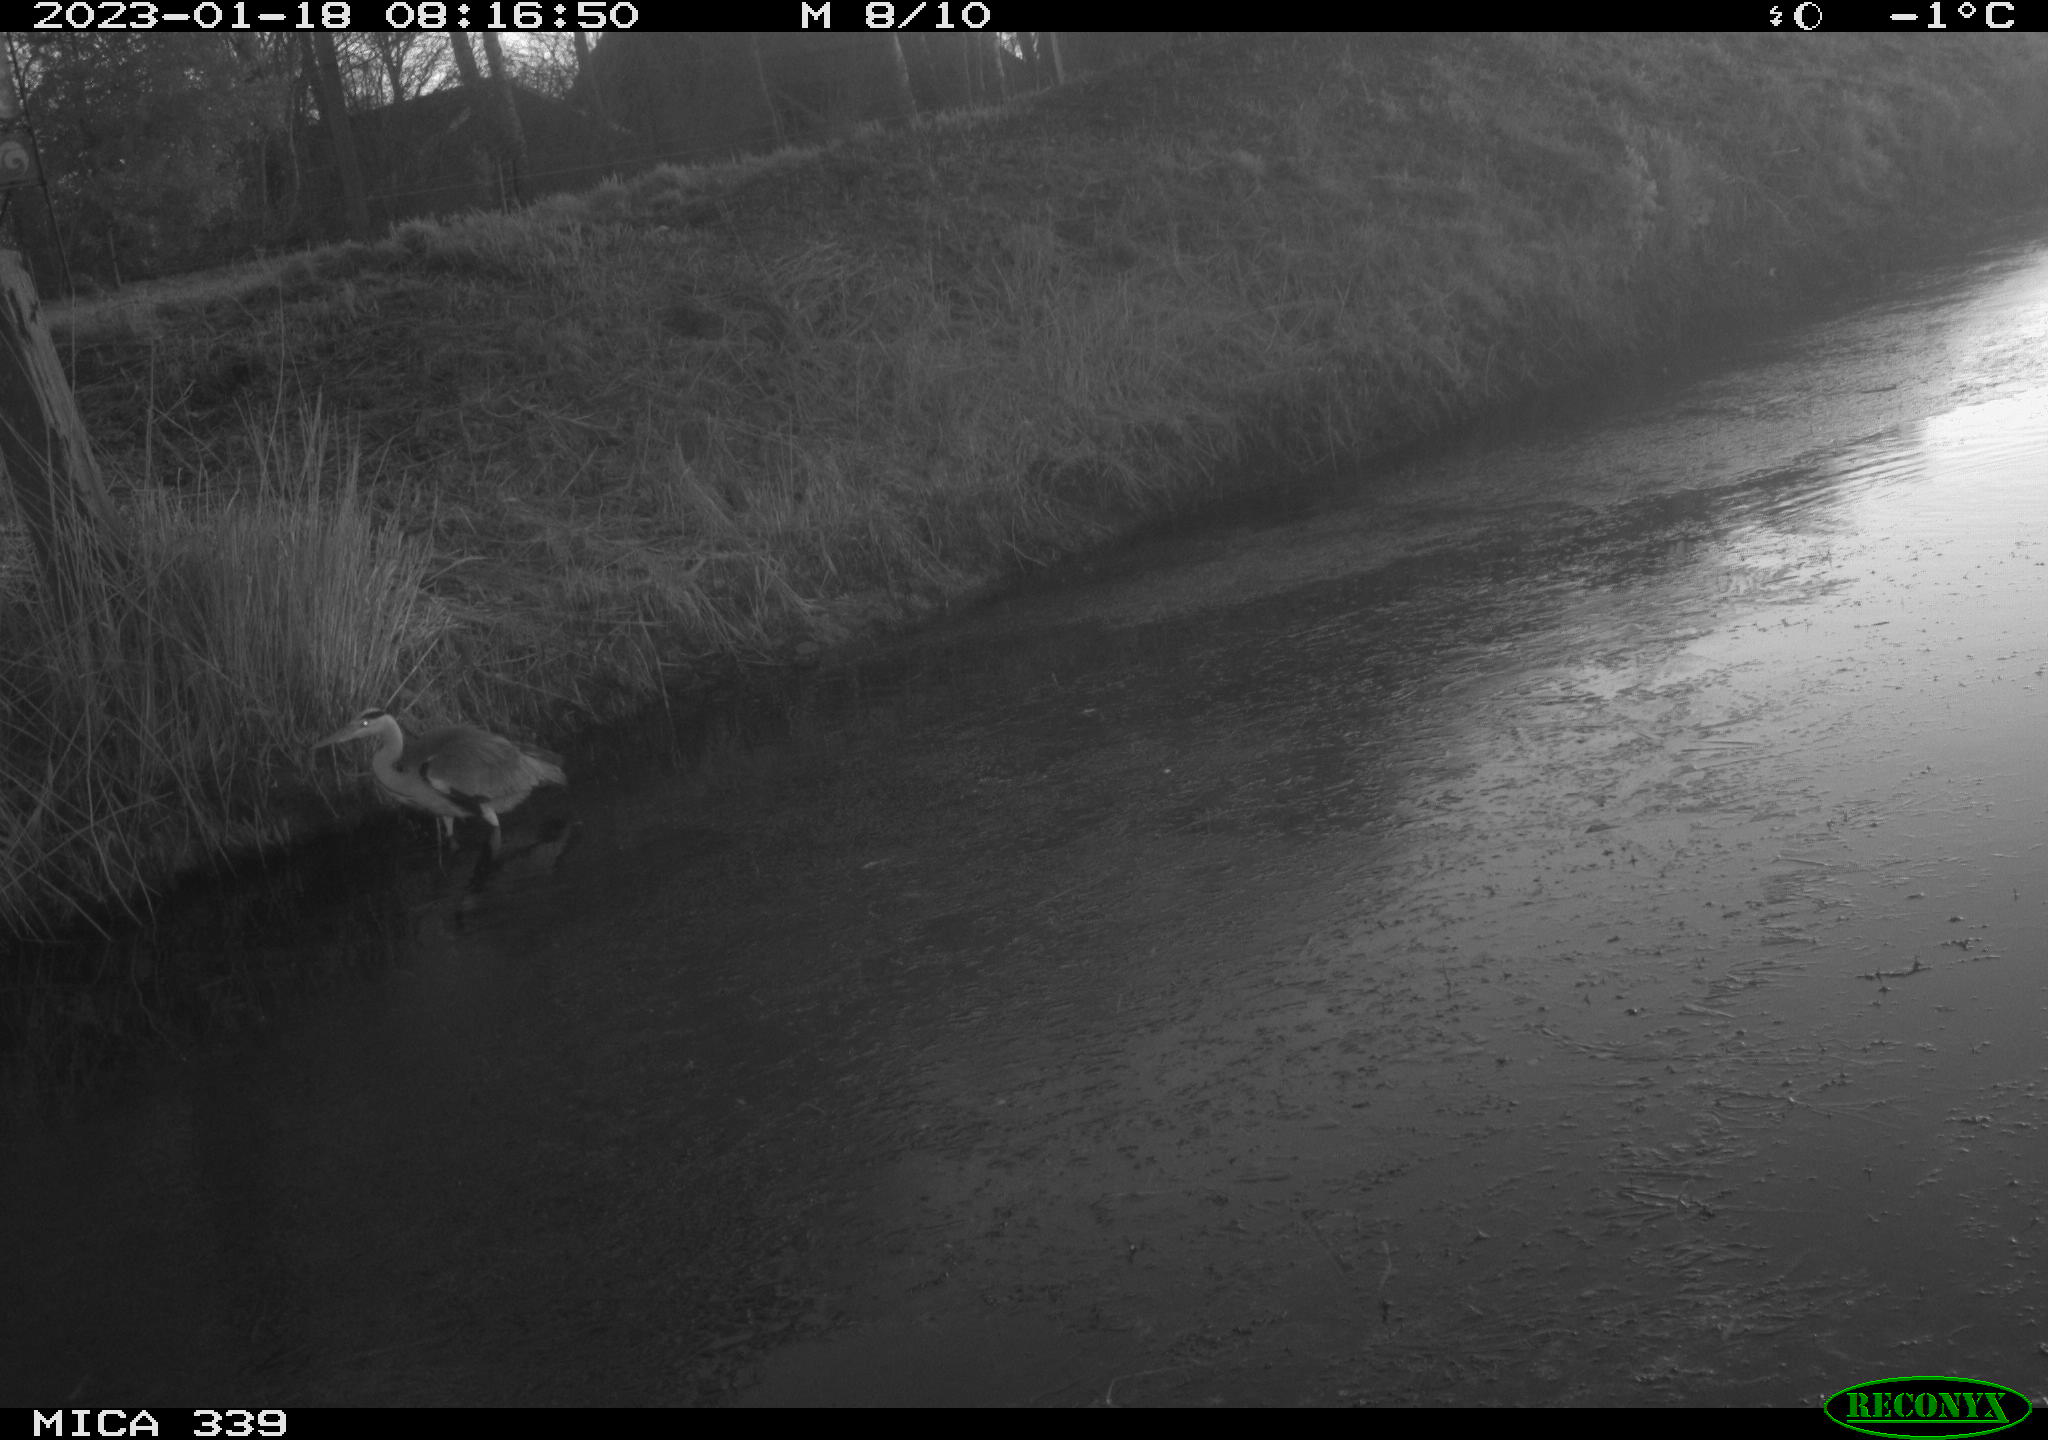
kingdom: Animalia
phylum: Chordata
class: Aves
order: Pelecaniformes
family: Ardeidae
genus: Ardea
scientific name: Ardea cinerea
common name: Grey heron
